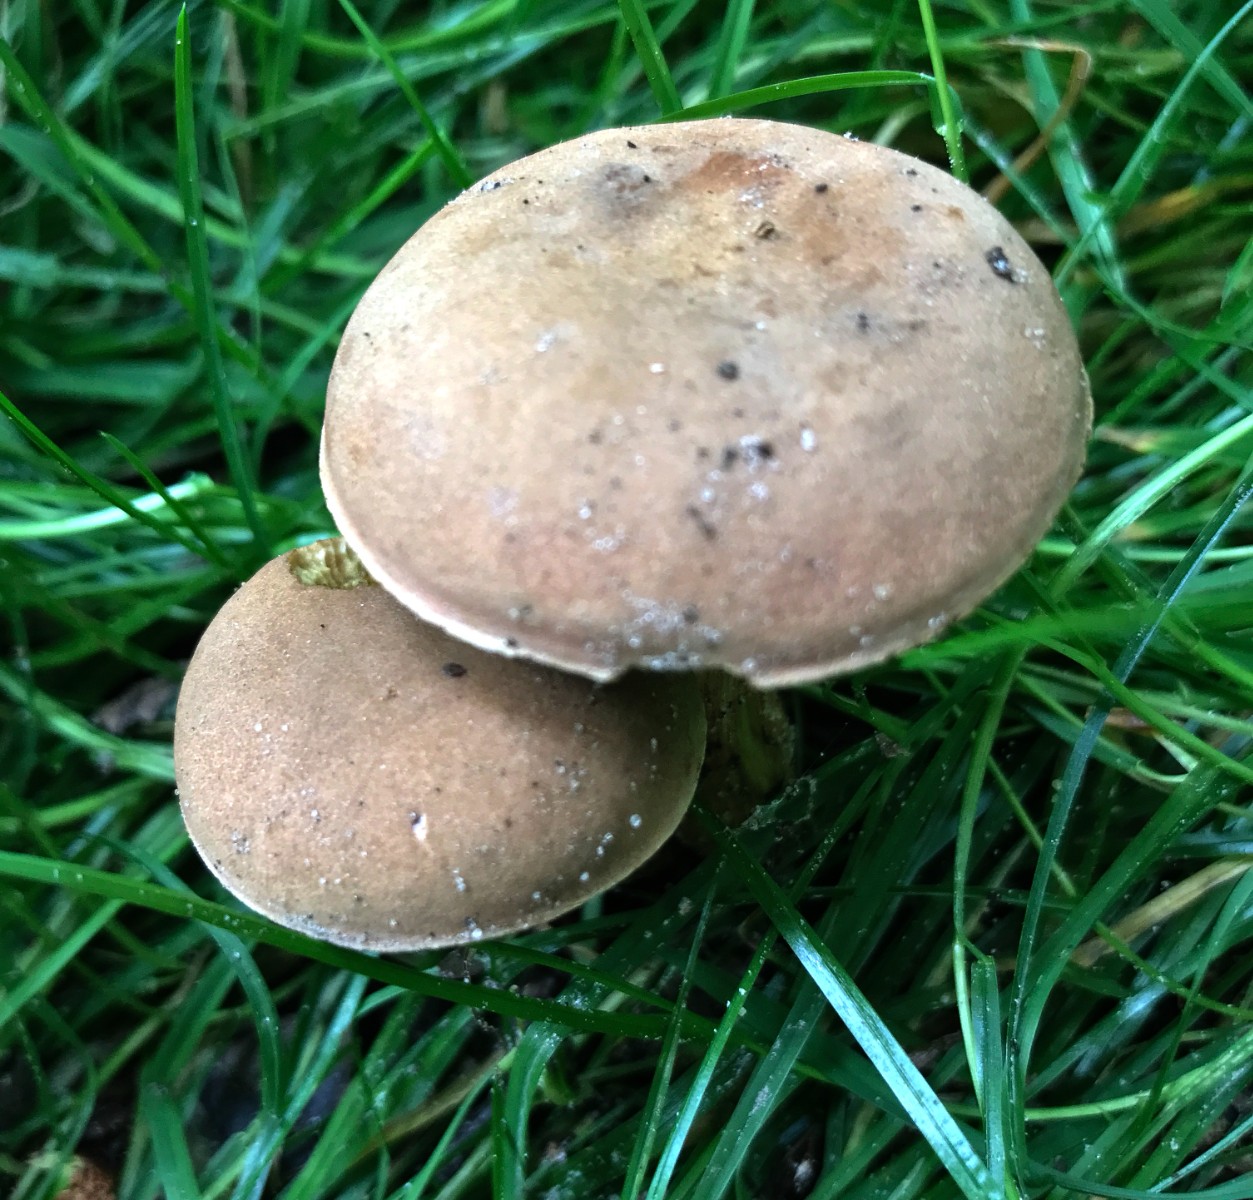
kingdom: Fungi
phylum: Basidiomycota
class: Agaricomycetes
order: Boletales
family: Boletaceae
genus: Hortiboletus
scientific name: Hortiboletus engelii
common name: fersken-rørhat
